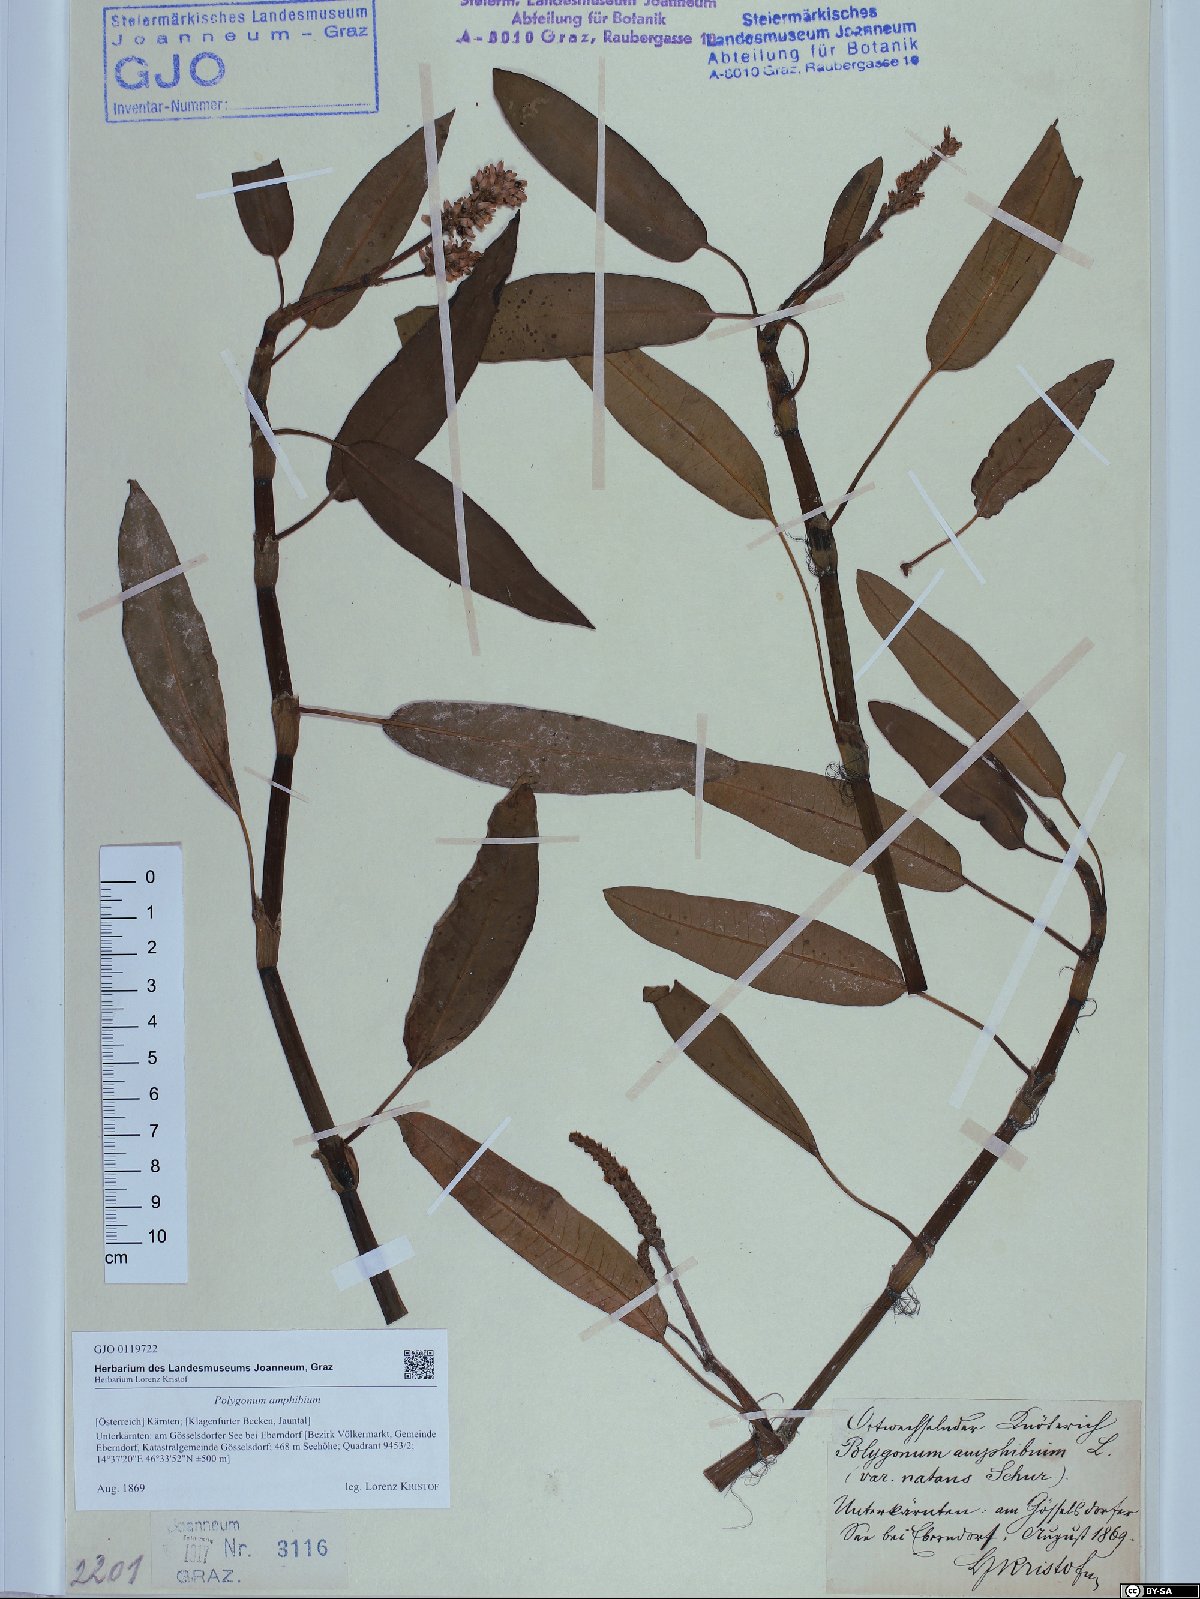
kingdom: Plantae
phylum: Tracheophyta
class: Magnoliopsida
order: Caryophyllales
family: Polygonaceae
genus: Persicaria
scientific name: Persicaria amphibia
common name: Amphibious bistort
